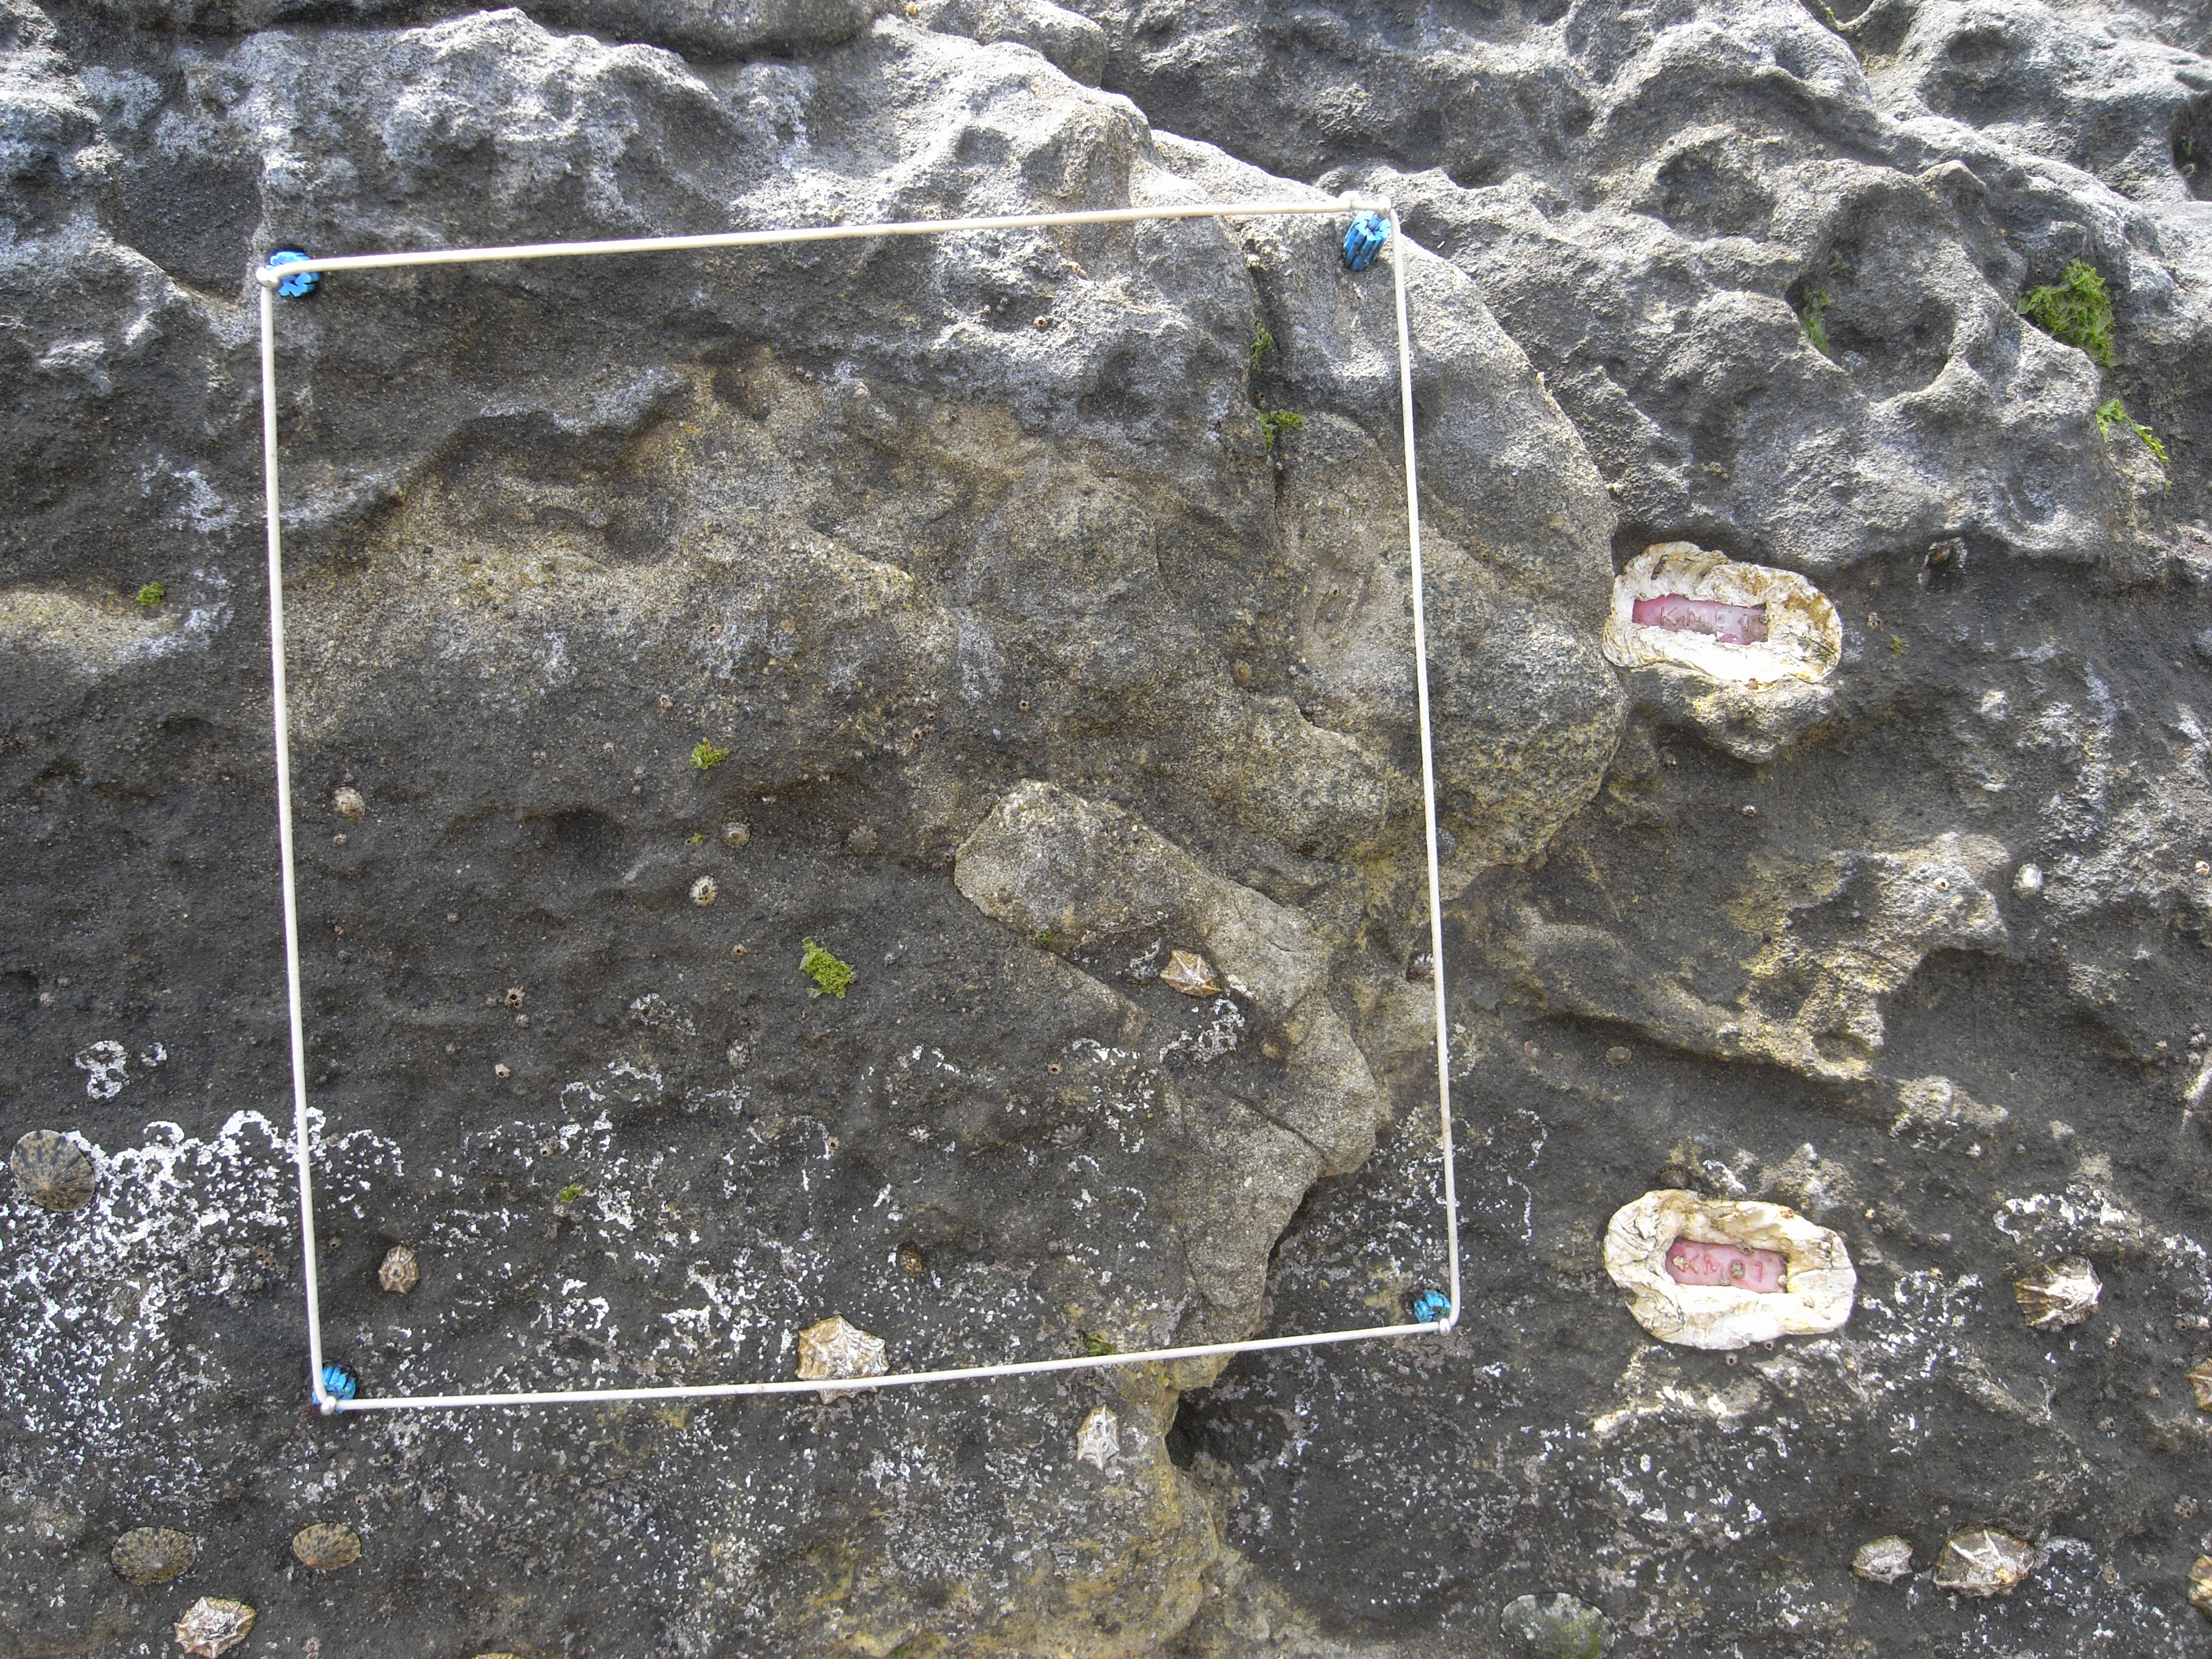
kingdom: Animalia
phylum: Arthropoda
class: Maxillopoda
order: Sessilia
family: Chthamalidae
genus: Chthamalus
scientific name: Chthamalus challengeri
